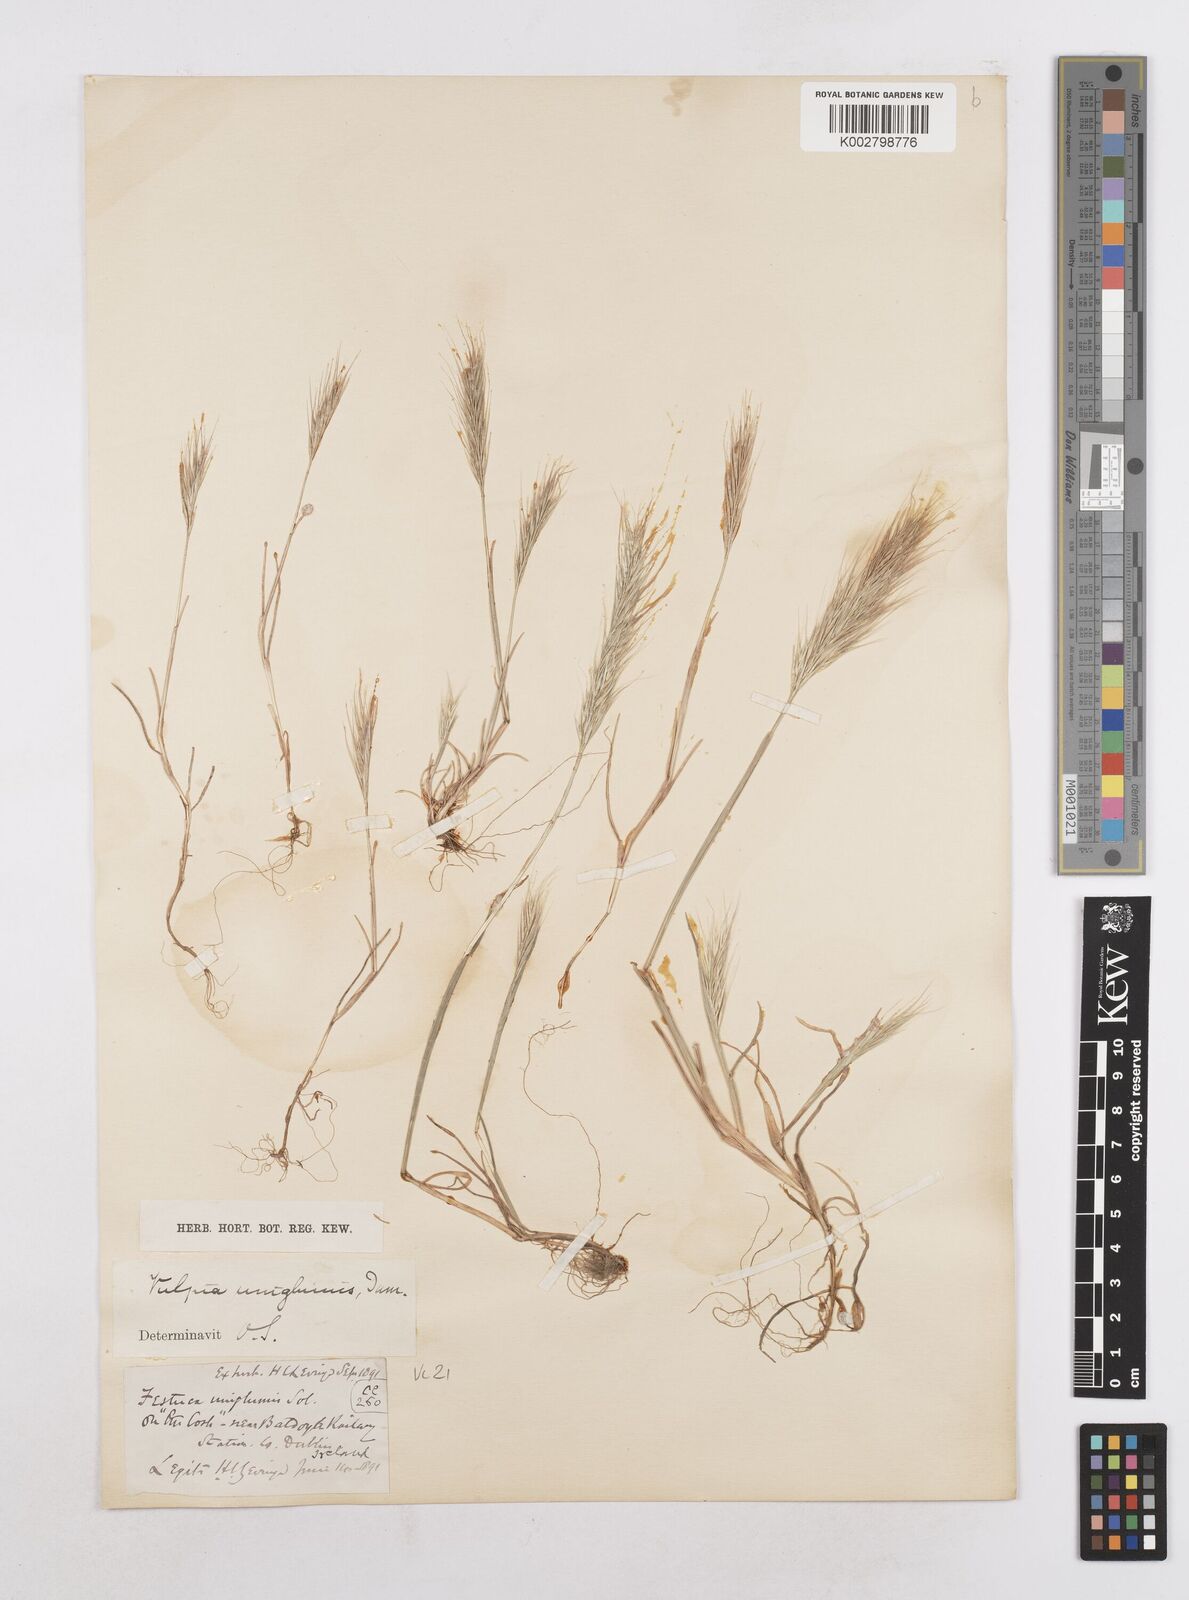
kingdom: Plantae
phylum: Tracheophyta
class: Liliopsida
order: Poales
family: Poaceae
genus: Festuca
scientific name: Festuca fasciculata
